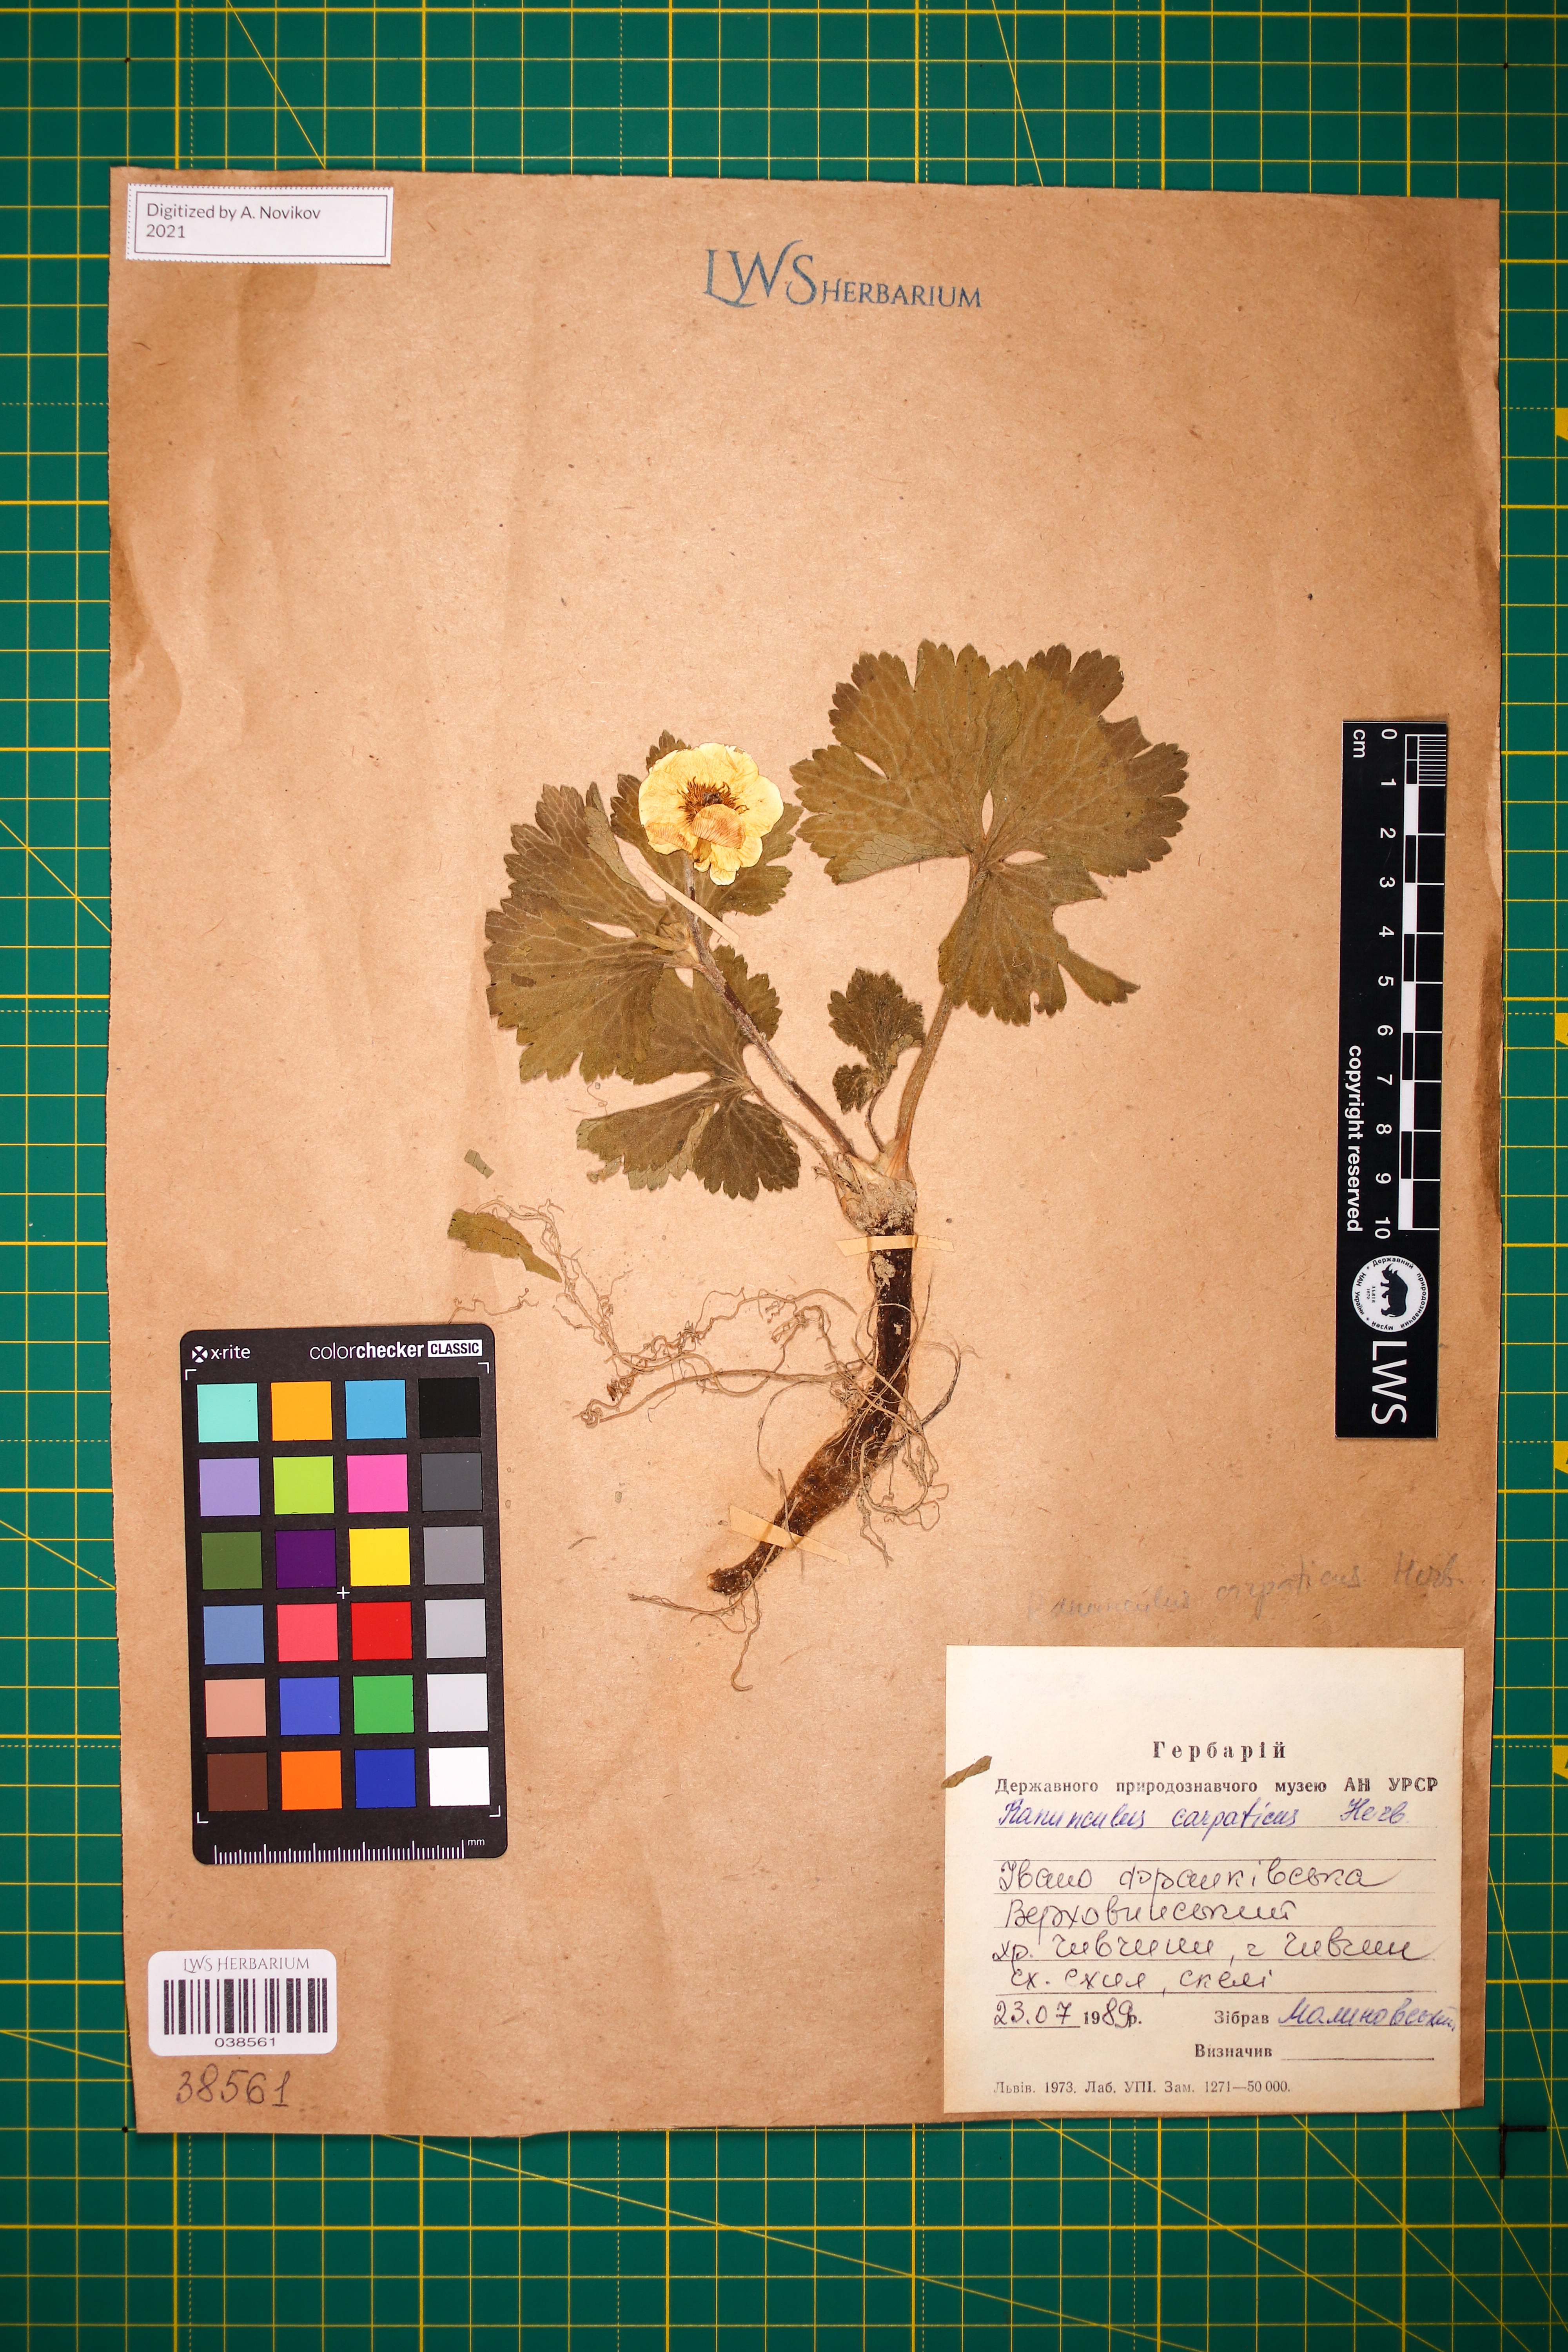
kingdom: Plantae
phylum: Tracheophyta
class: Magnoliopsida
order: Ranunculales
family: Ranunculaceae
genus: Ranunculus
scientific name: Ranunculus carpaticus
